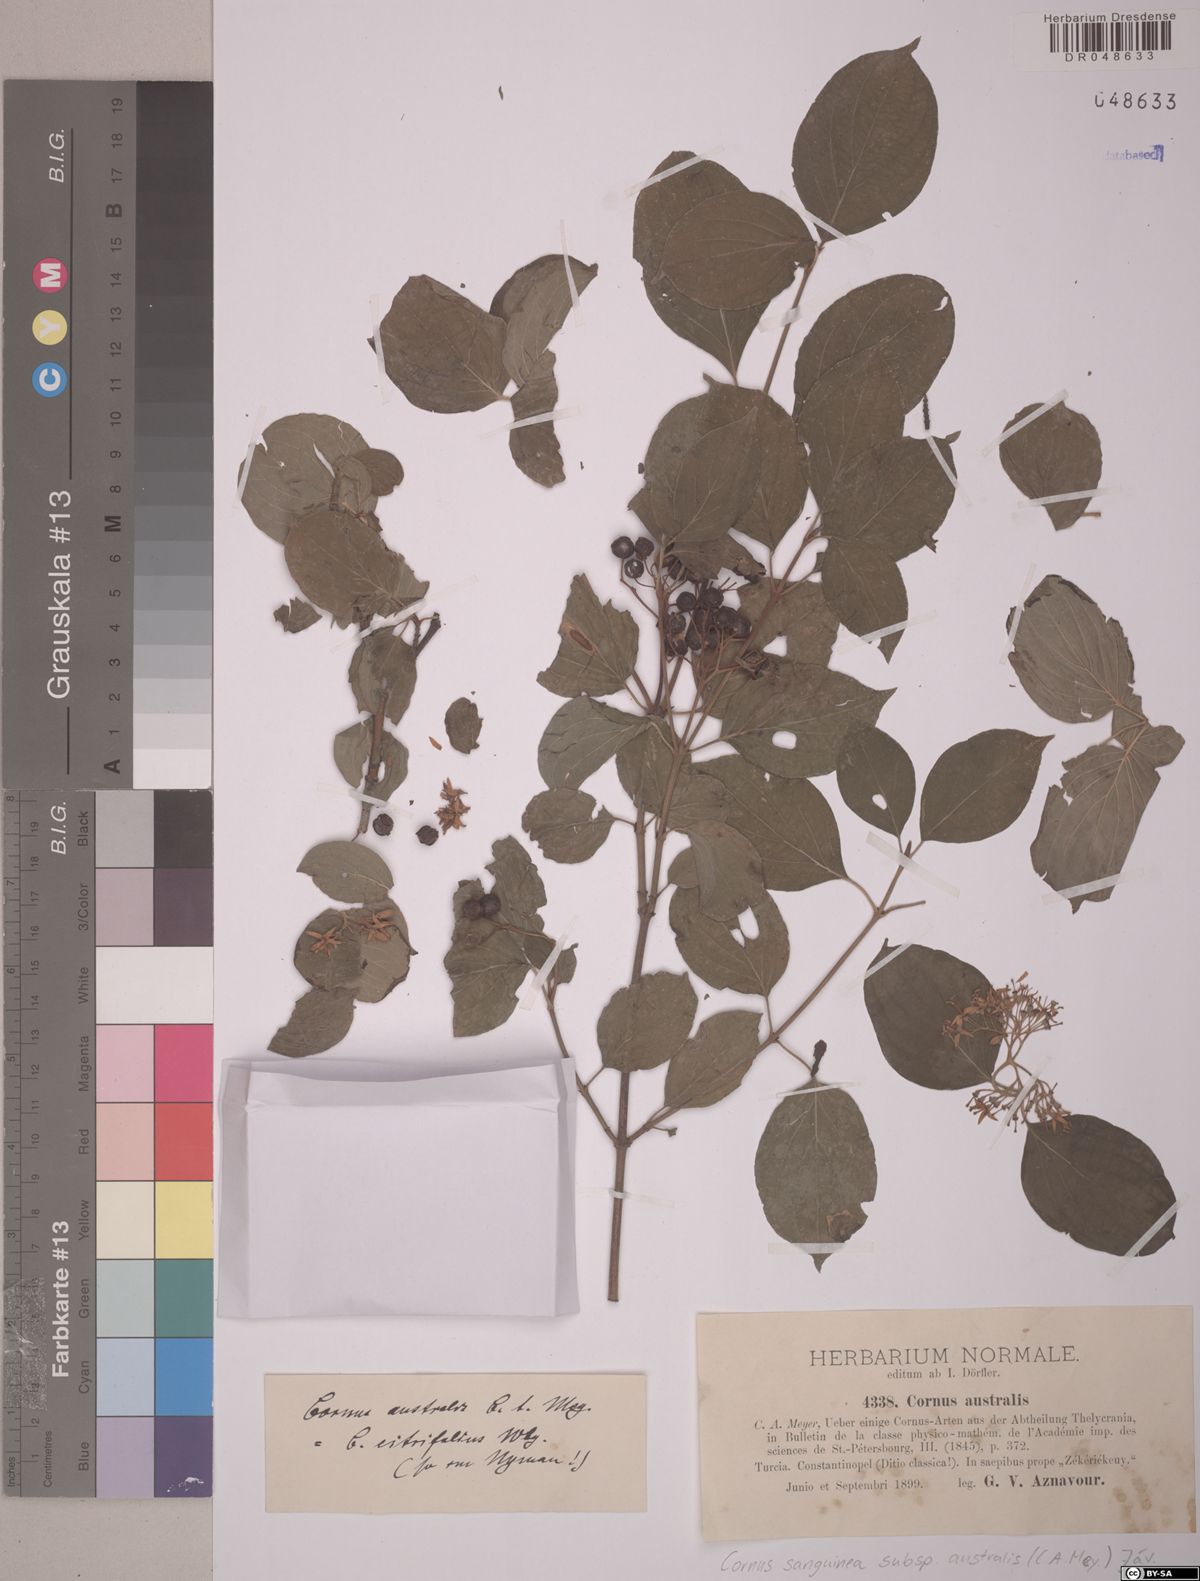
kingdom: Plantae
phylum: Tracheophyta
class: Magnoliopsida
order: Cornales
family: Cornaceae
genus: Cornus
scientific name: Cornus sanguinea
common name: Dogwood
